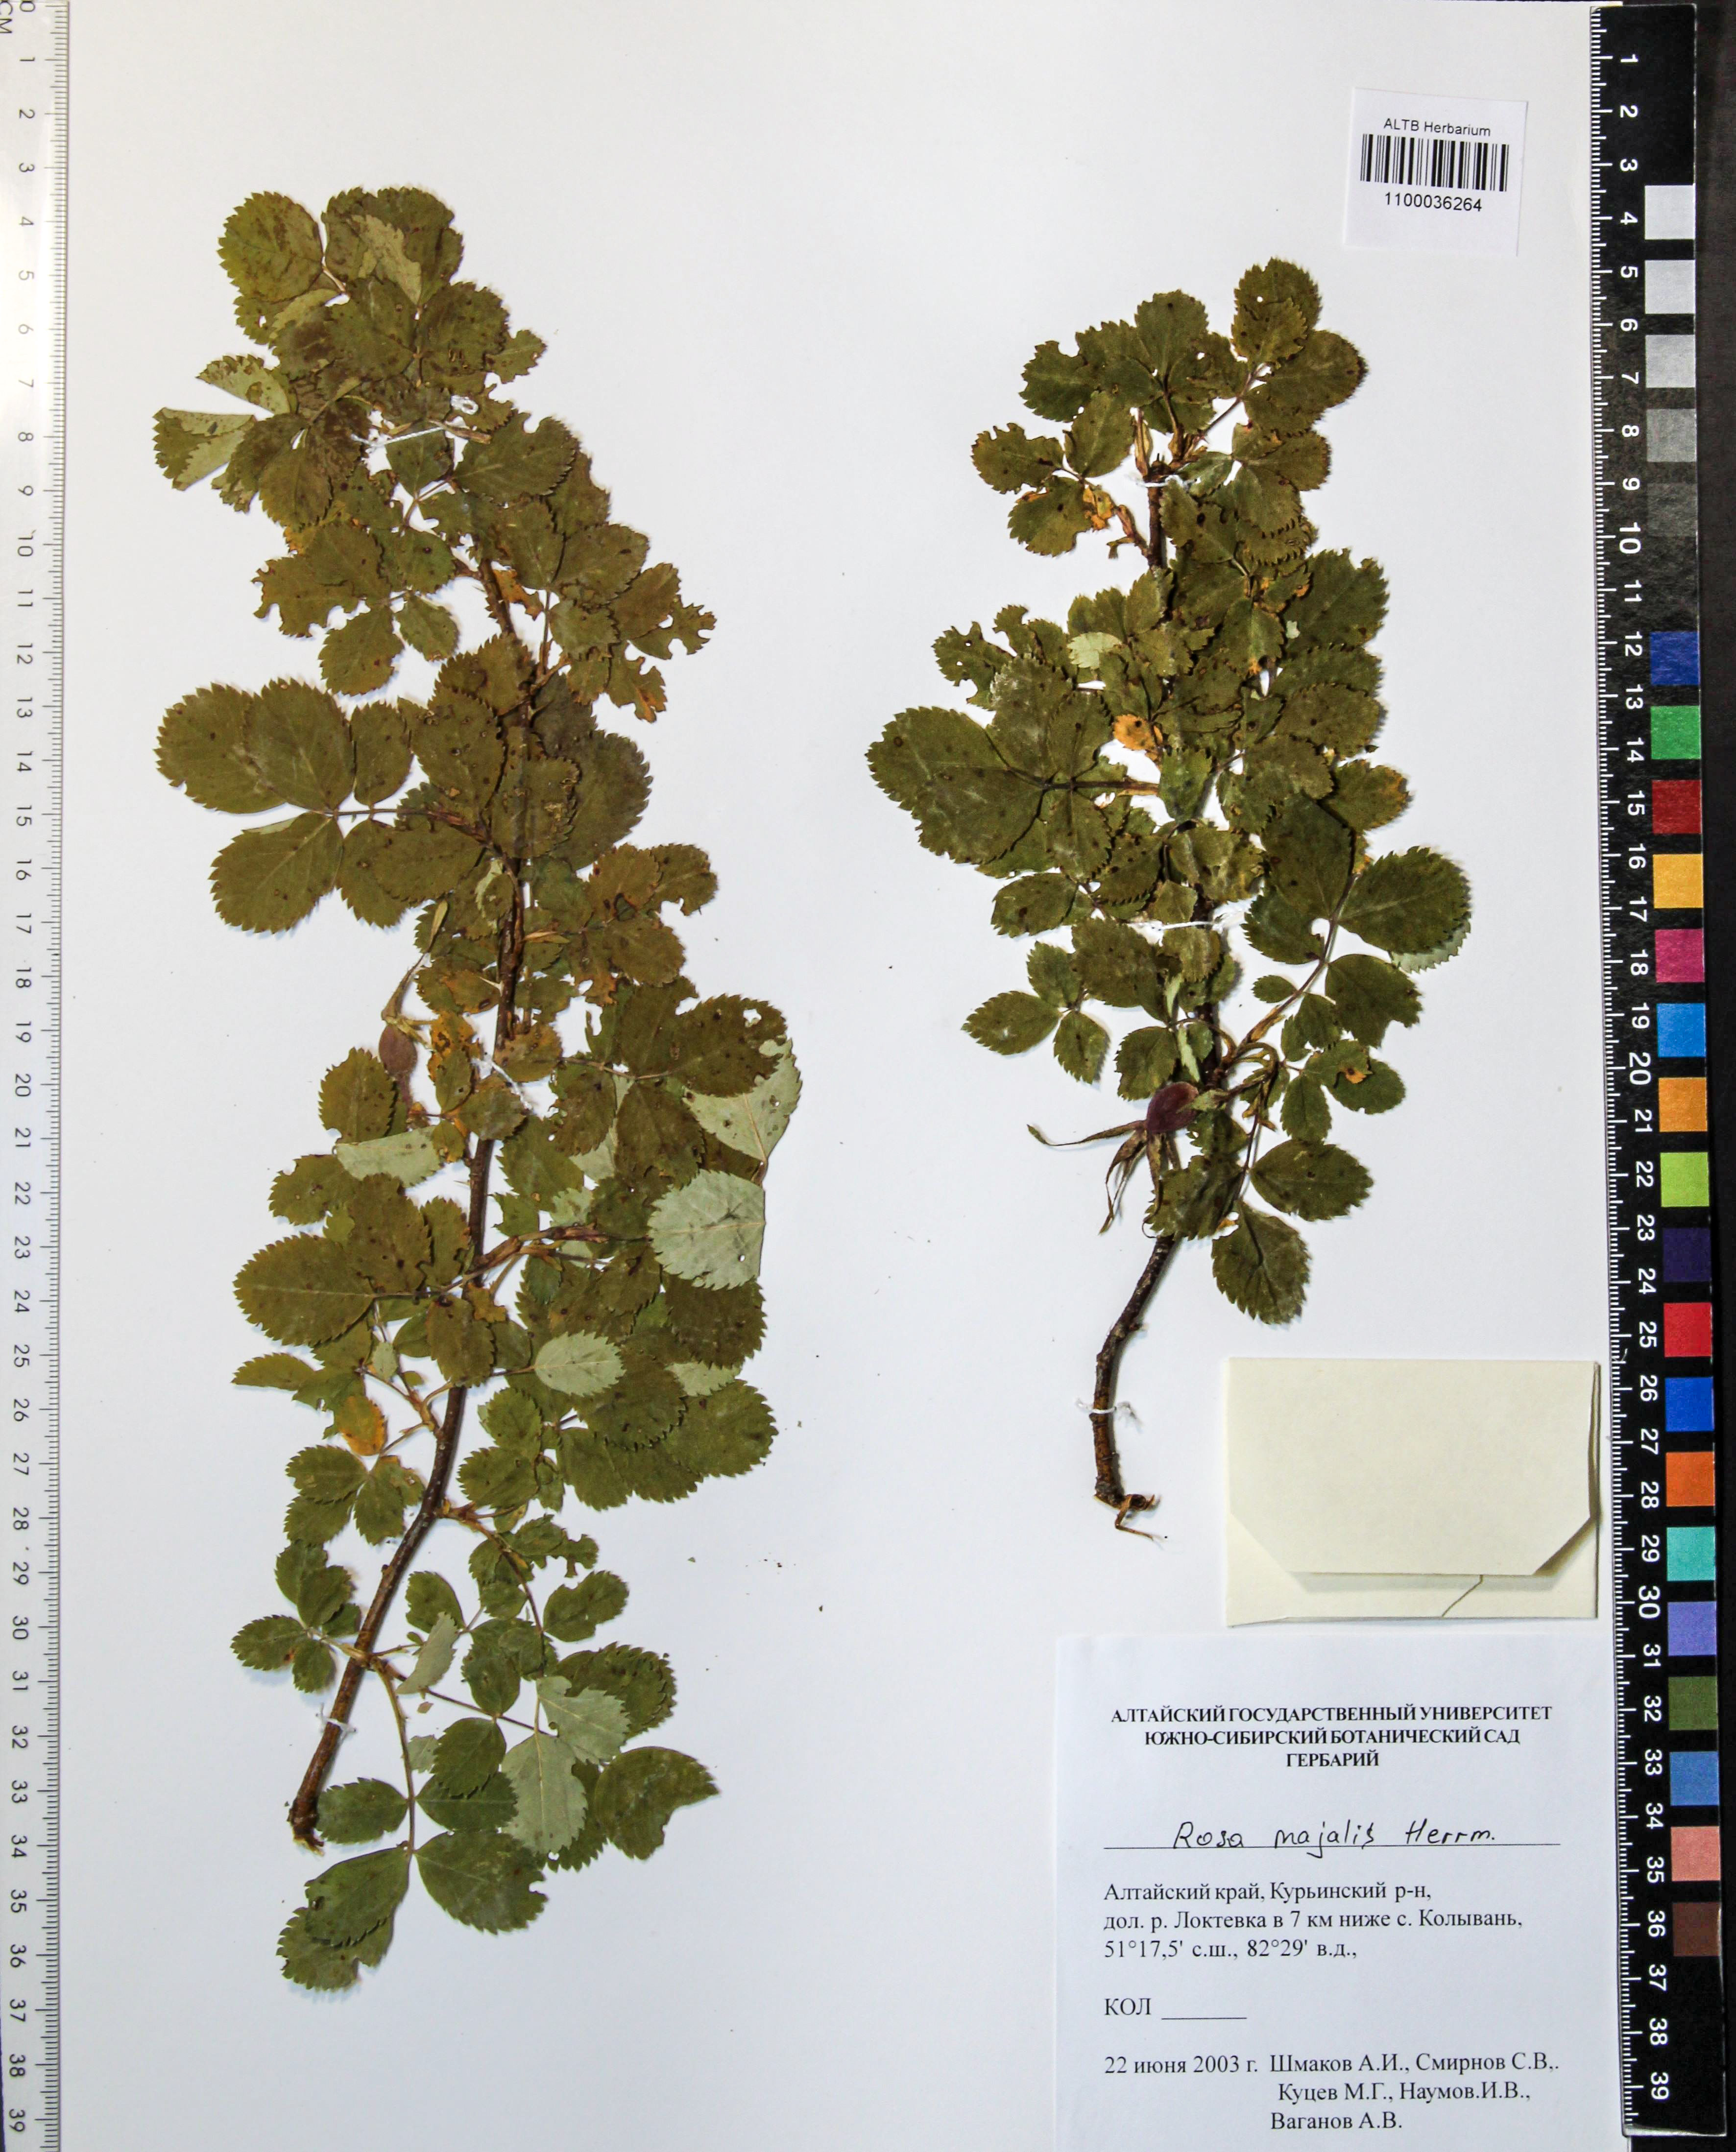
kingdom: Plantae
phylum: Tracheophyta
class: Magnoliopsida
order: Rosales
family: Rosaceae
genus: Rosa
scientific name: Rosa majalis
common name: Cinnamon rose
